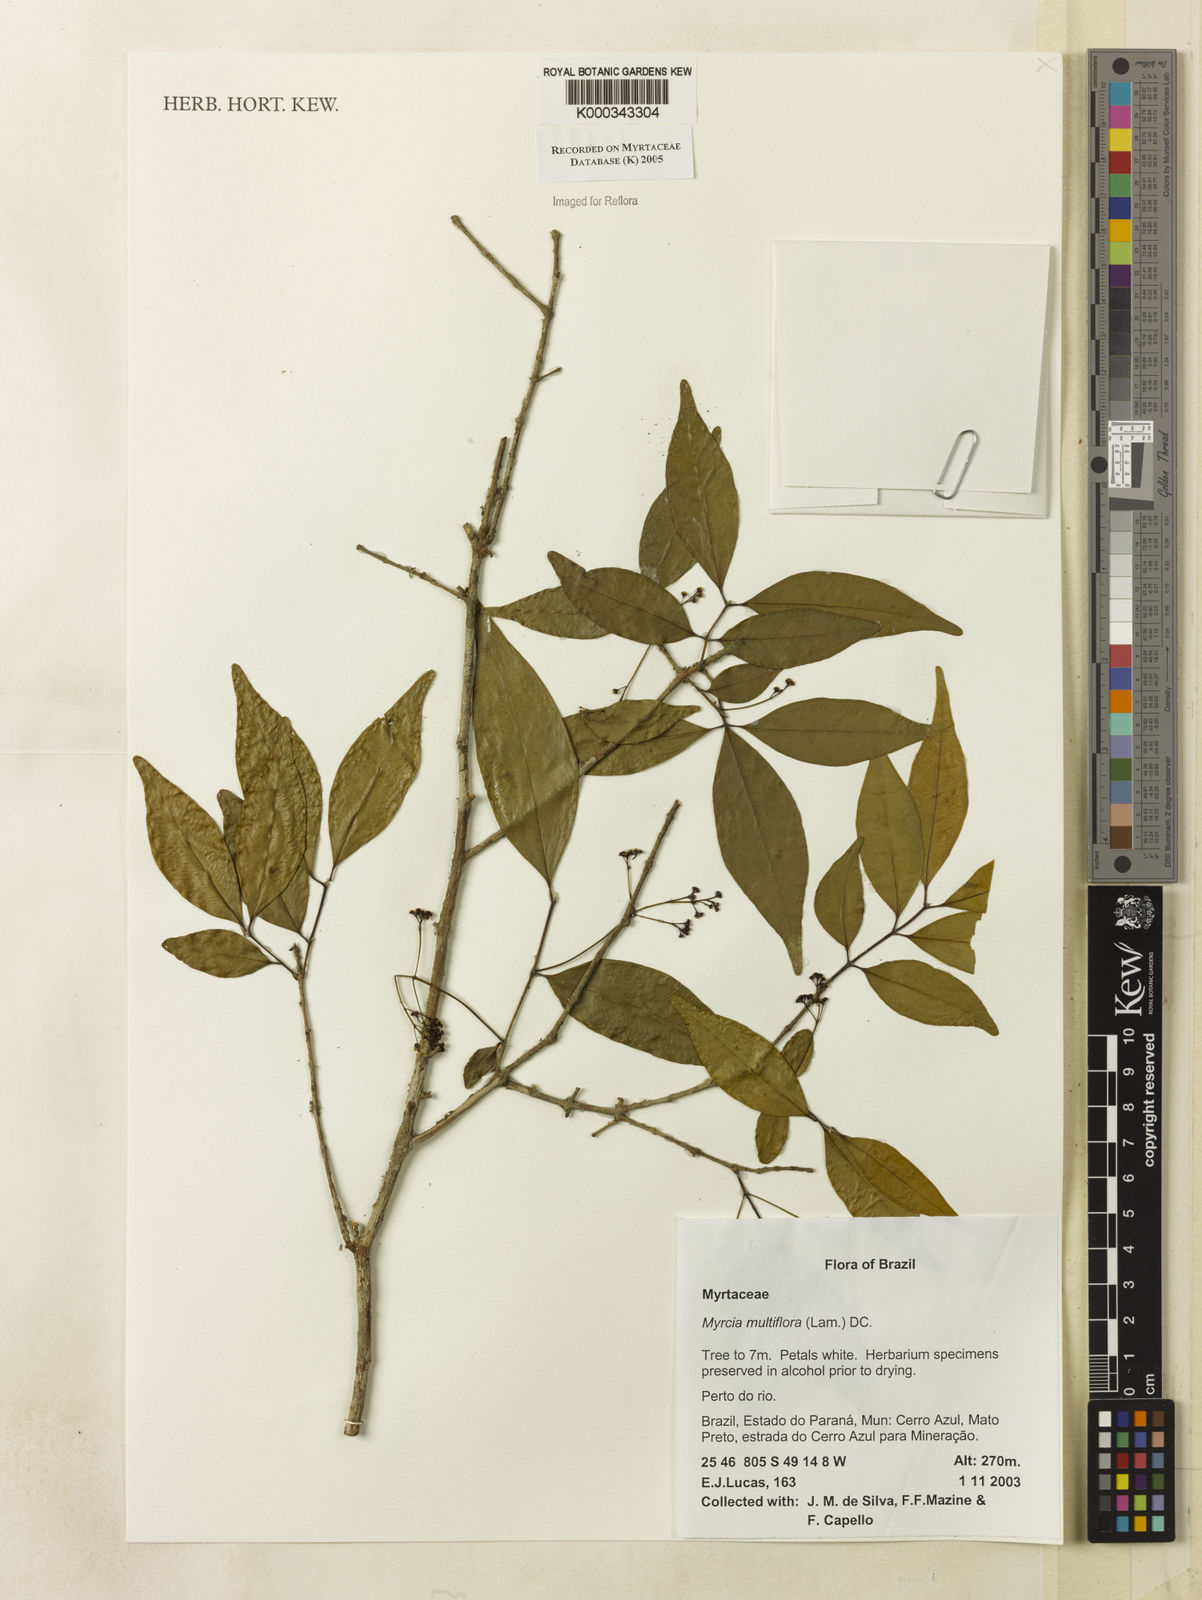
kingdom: Plantae
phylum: Tracheophyta
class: Magnoliopsida
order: Myrtales
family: Myrtaceae
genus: Myrcia
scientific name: Myrcia multiflora
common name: Pedra hume
